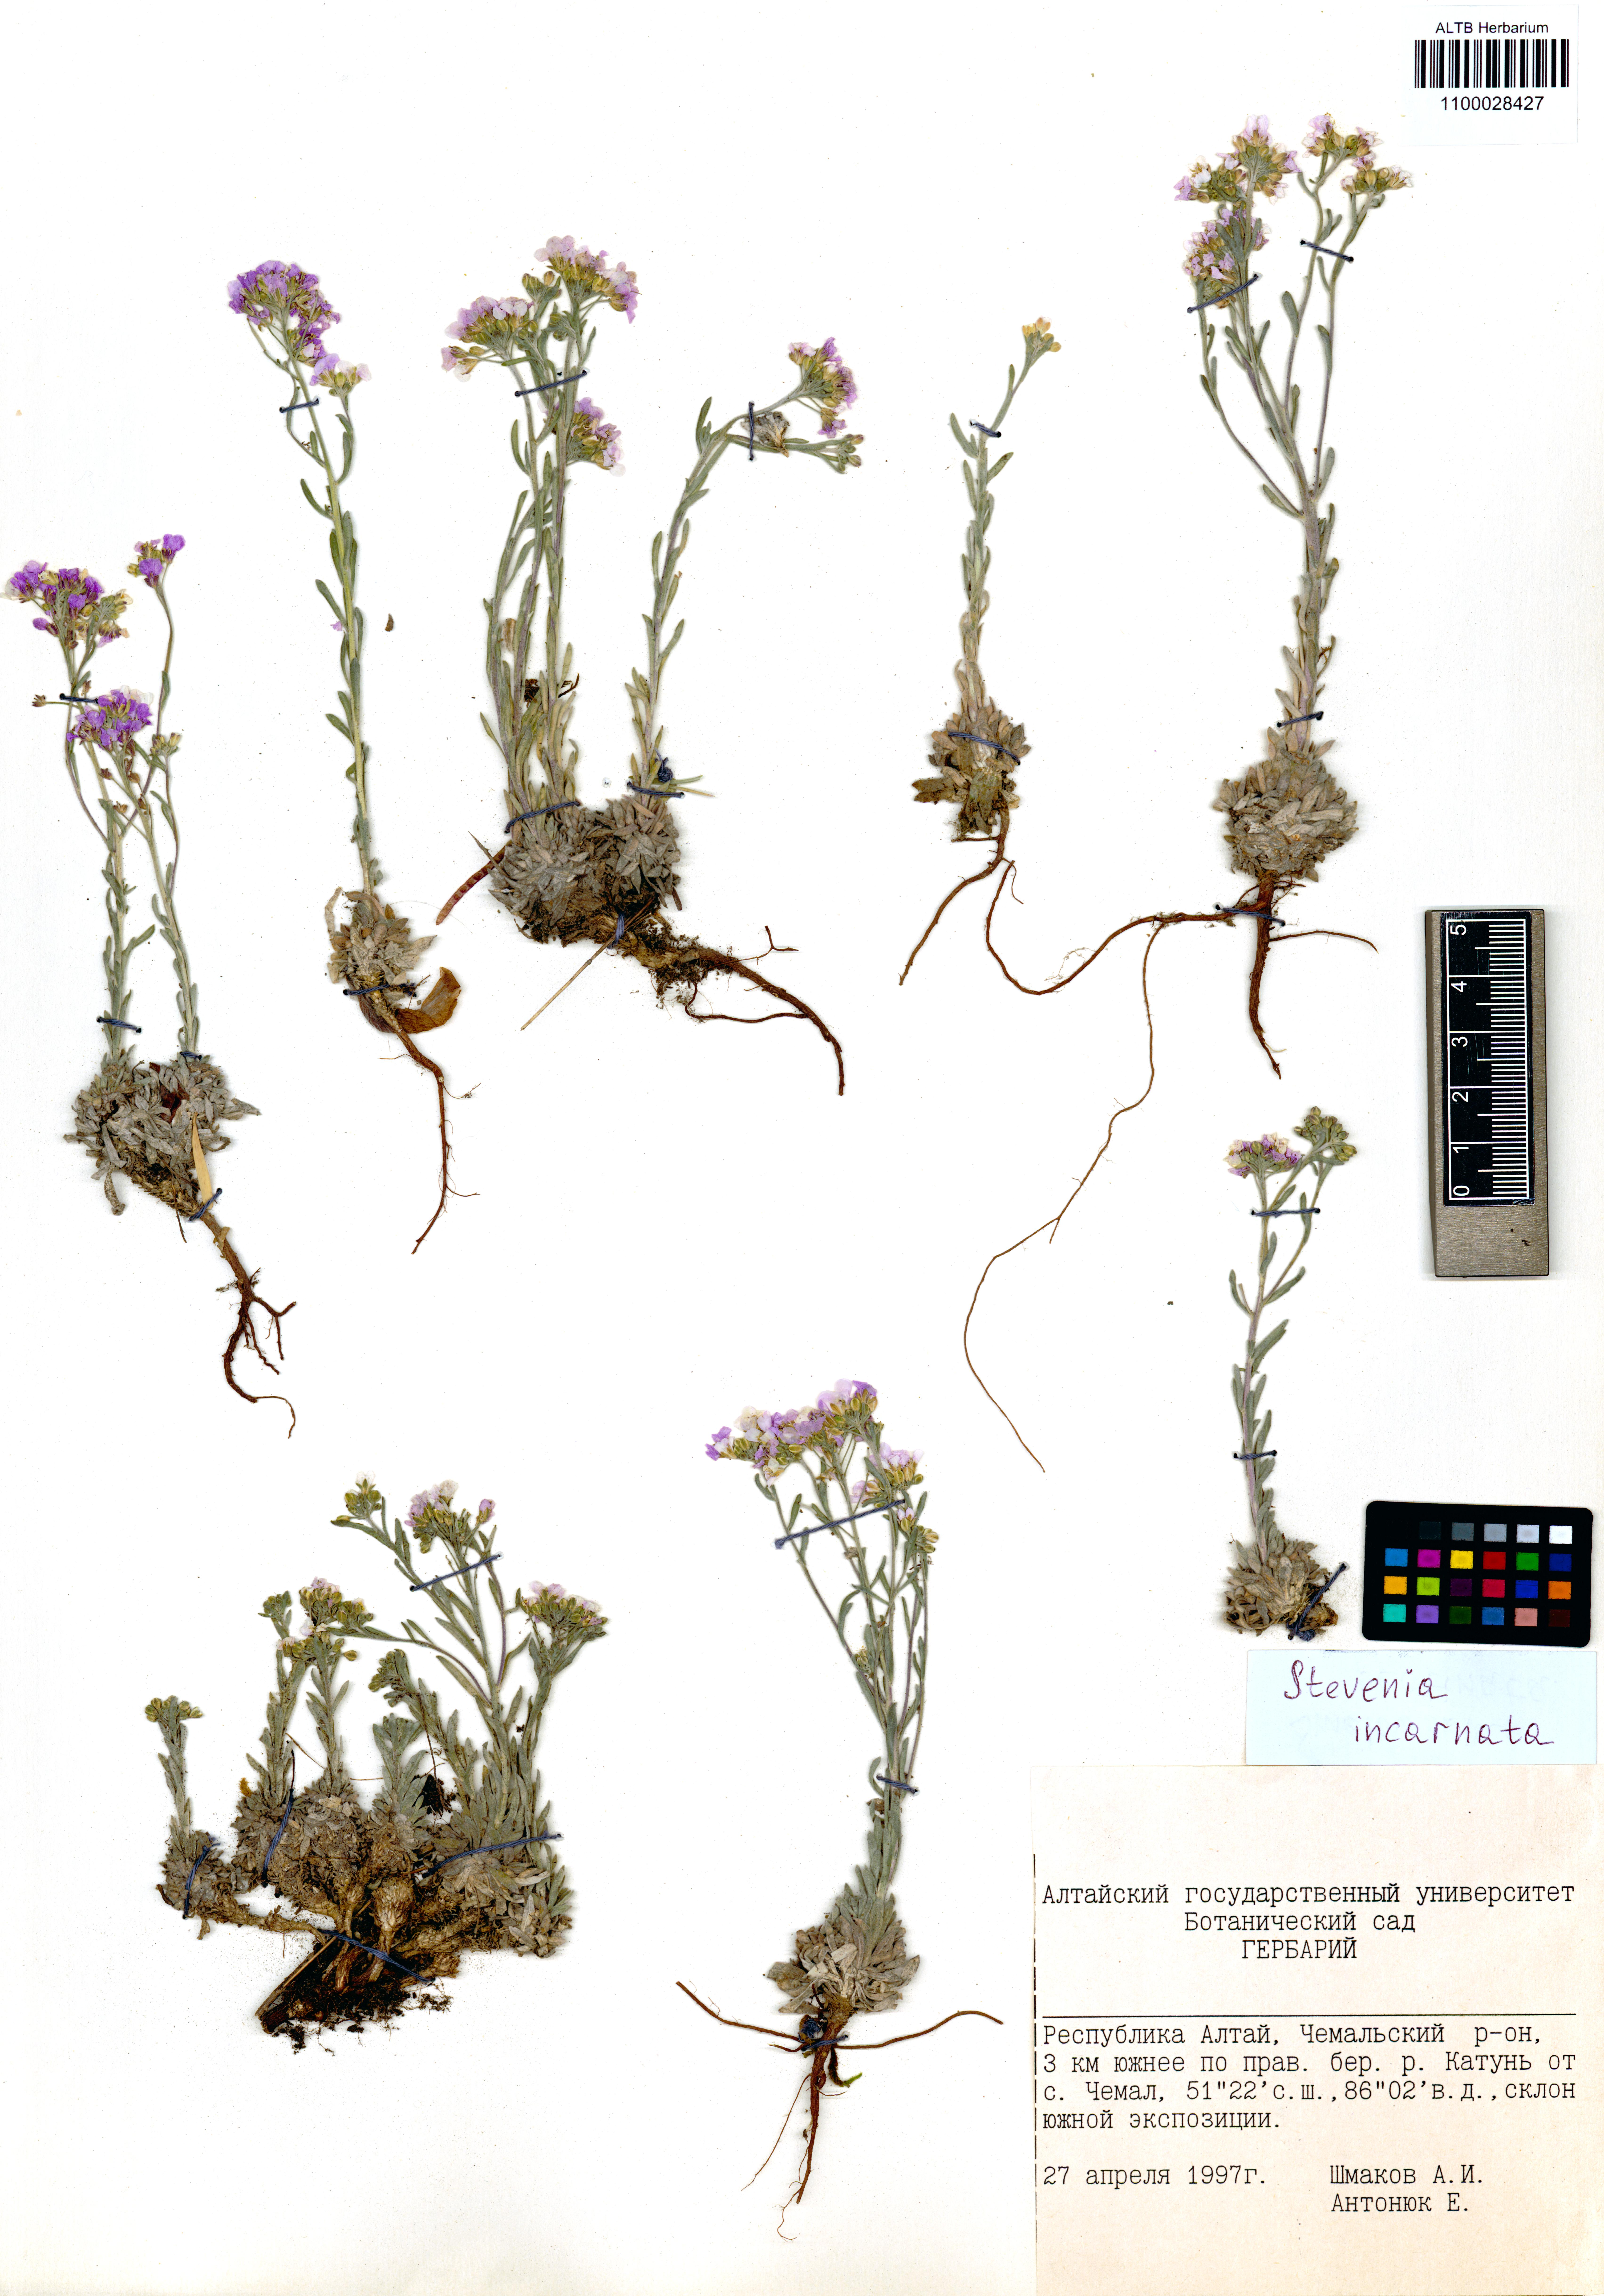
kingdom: Plantae
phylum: Tracheophyta
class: Magnoliopsida
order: Brassicales
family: Brassicaceae
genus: Stevenia
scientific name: Stevenia incarnata
